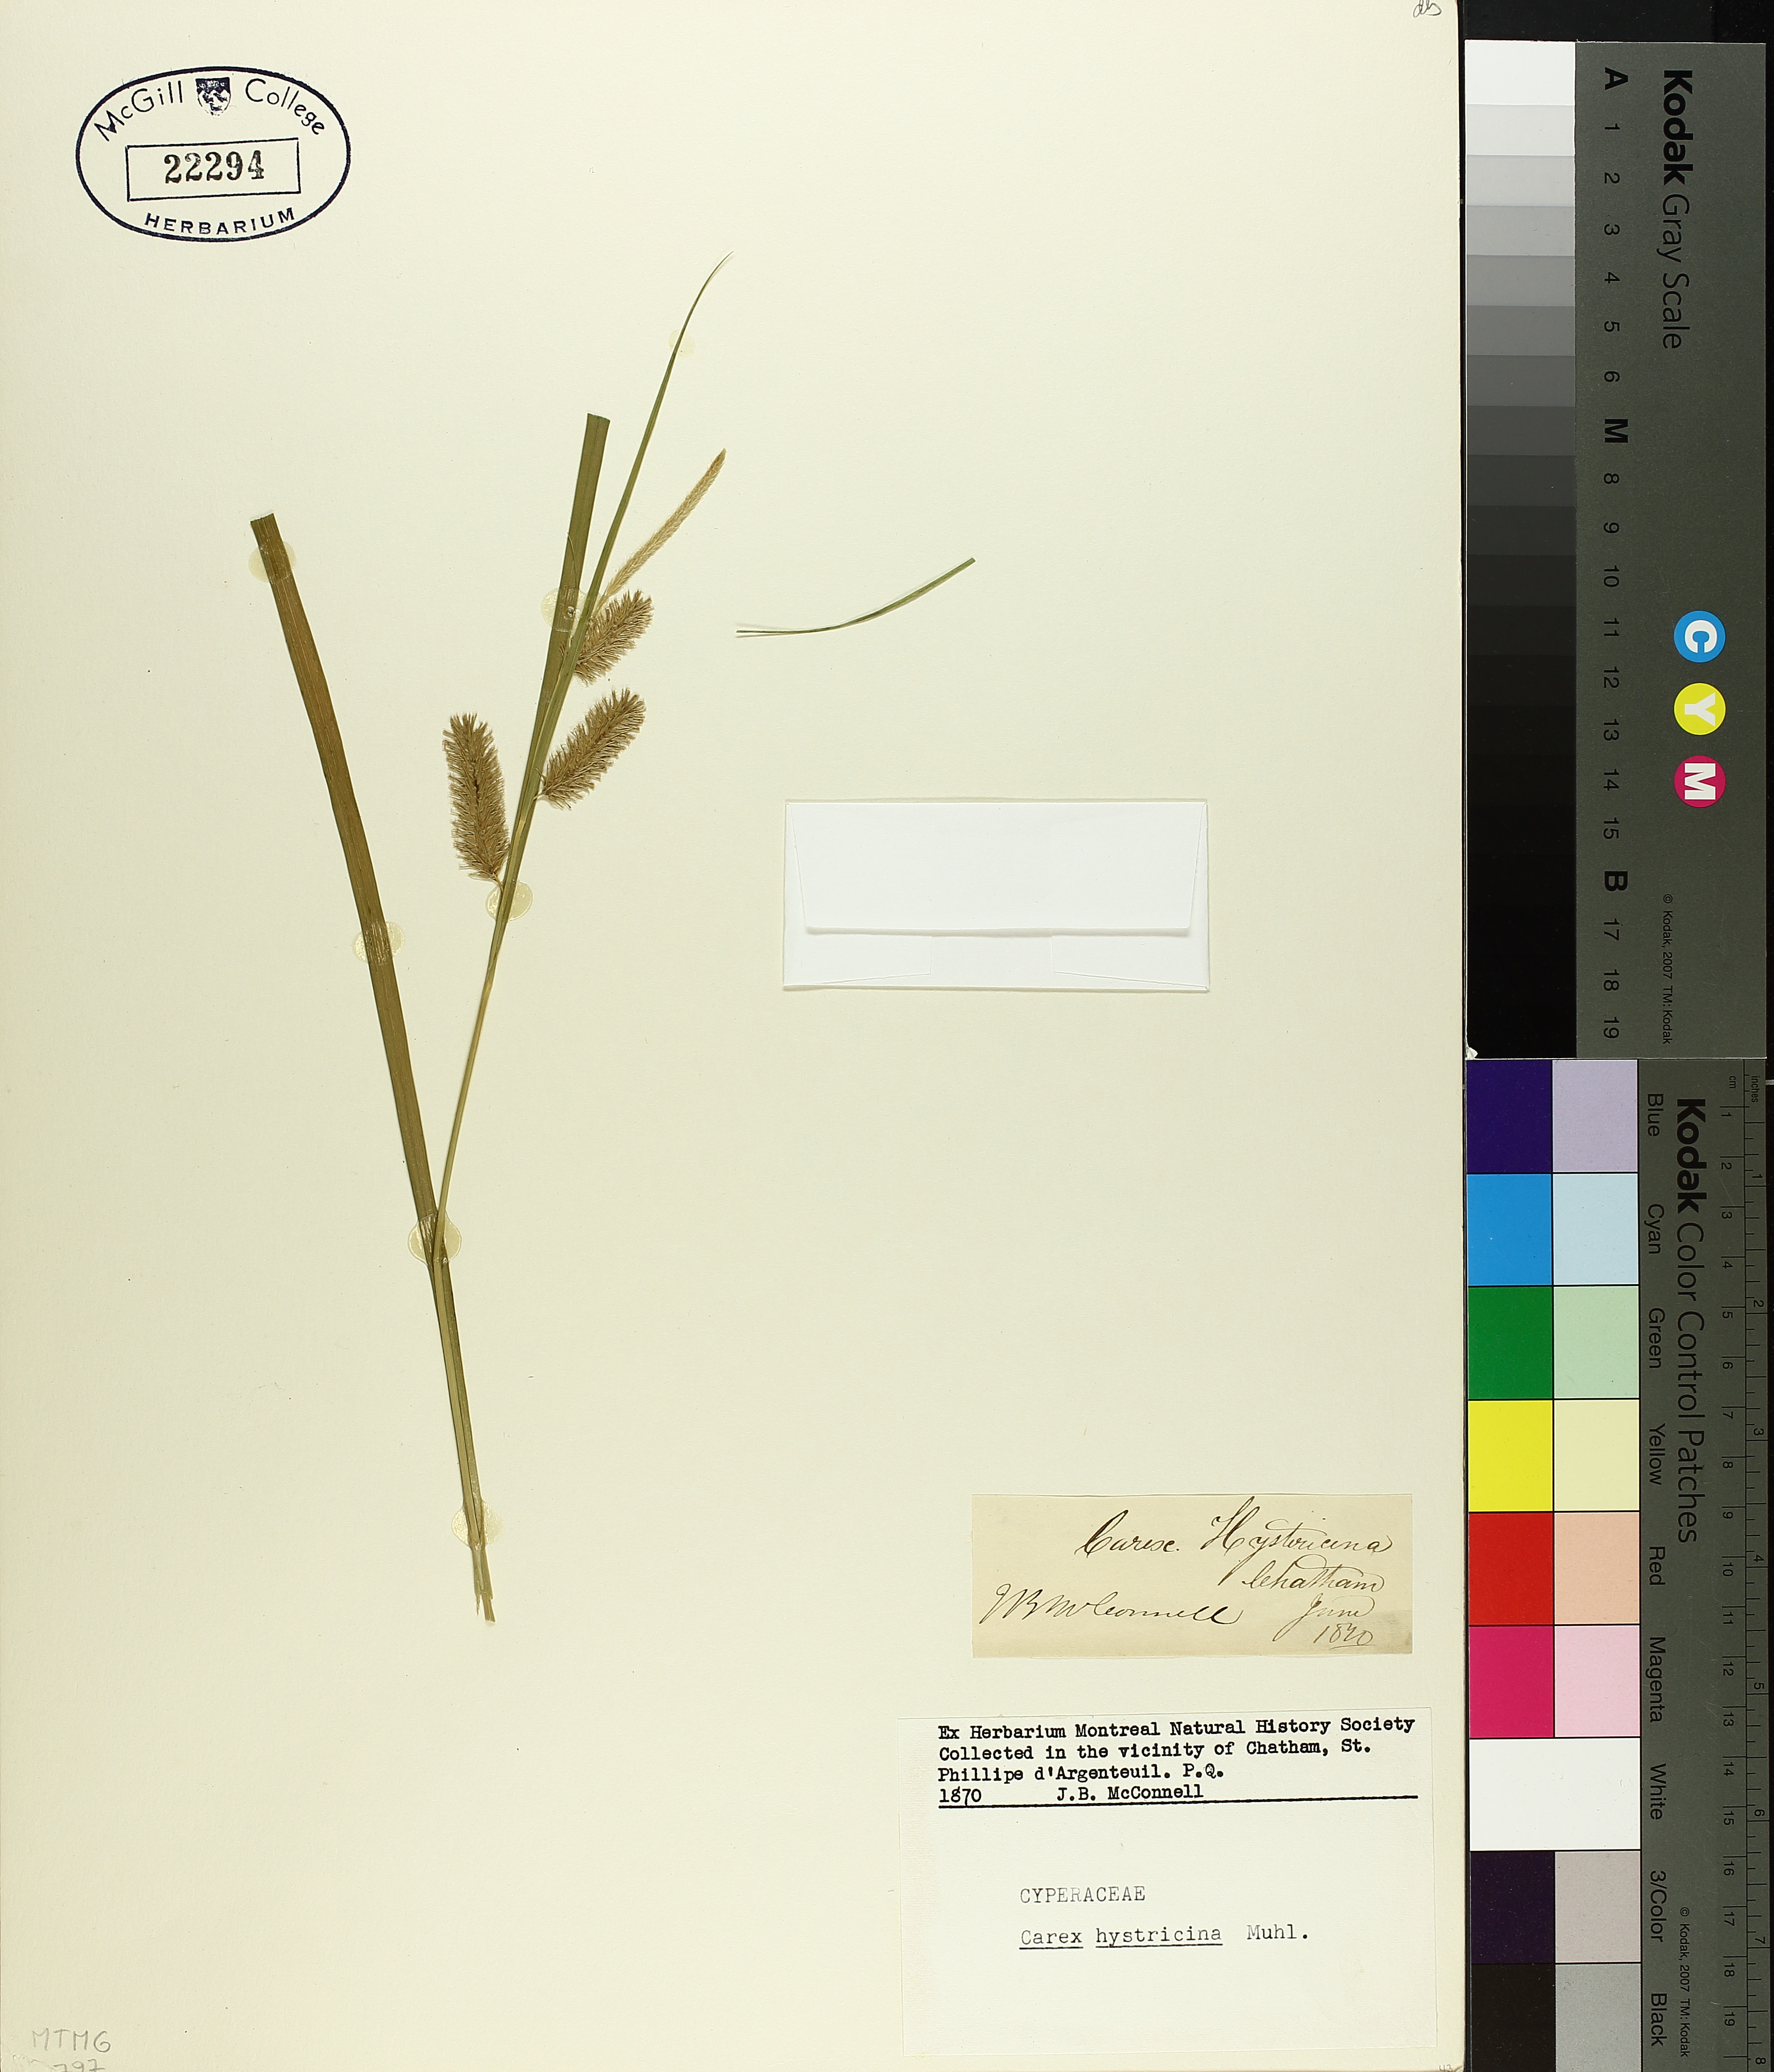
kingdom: Plantae
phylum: Tracheophyta
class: Liliopsida
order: Poales
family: Cyperaceae
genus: Carex
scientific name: Carex hystericina
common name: Bottlebrush sedge
